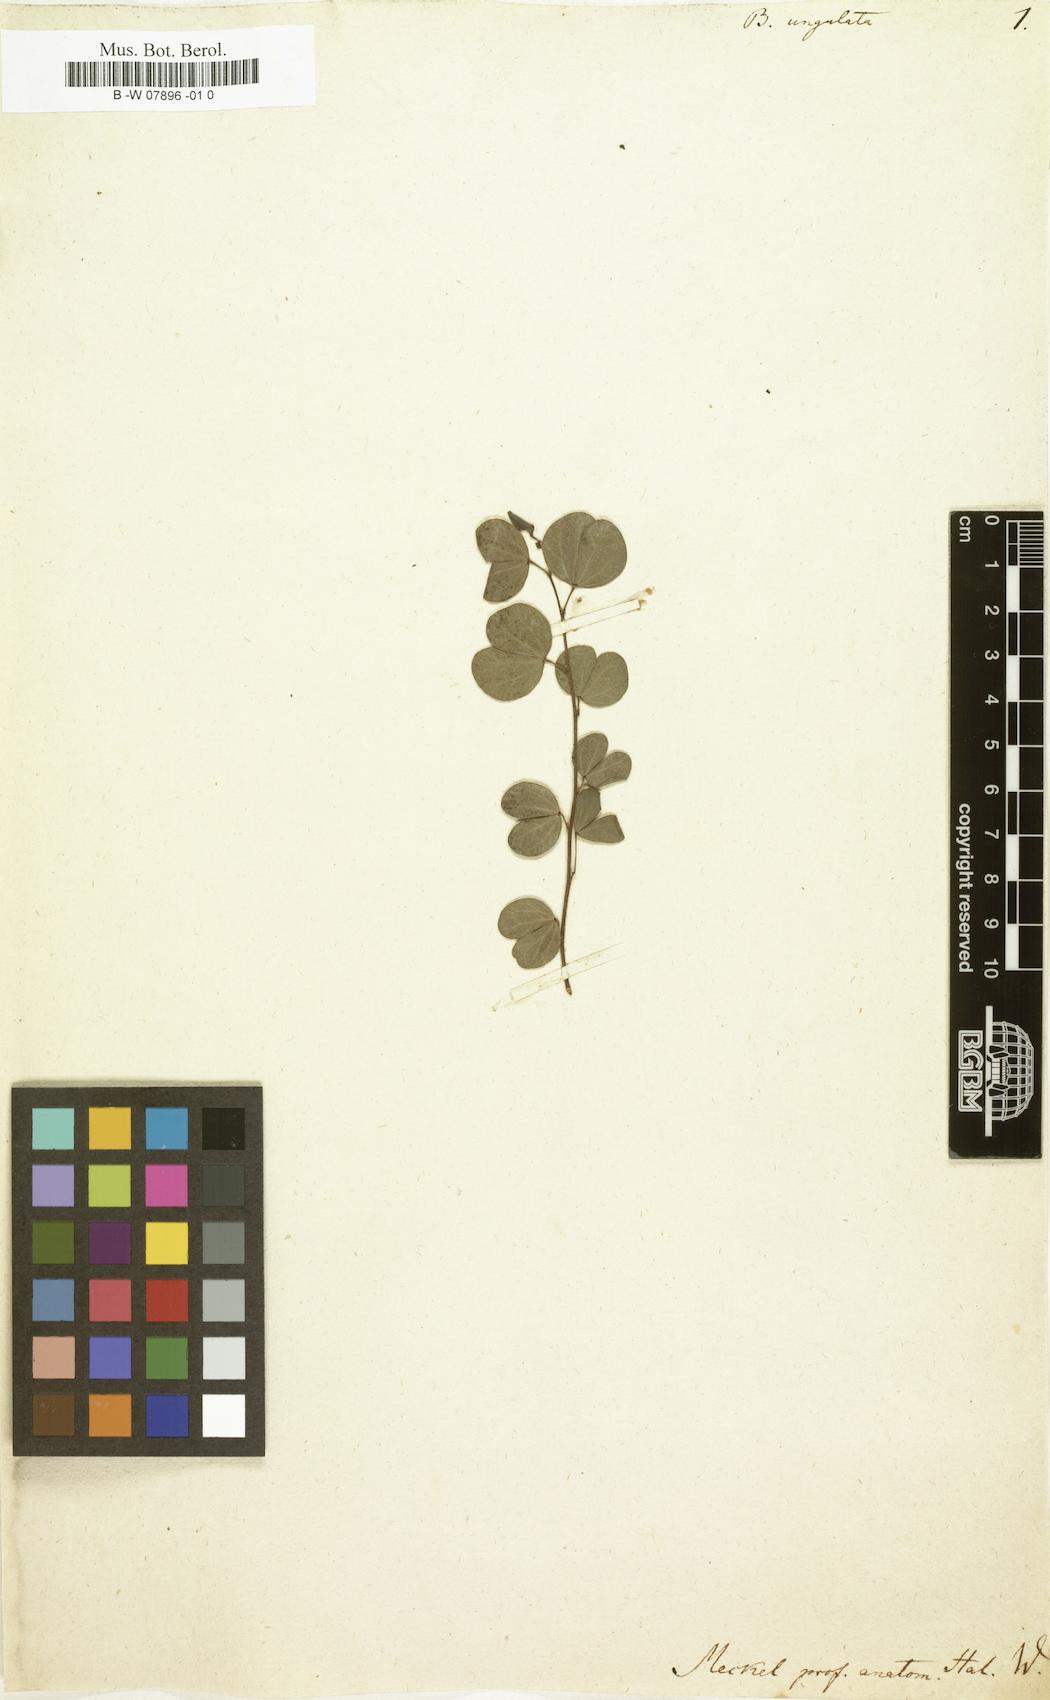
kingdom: Plantae
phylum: Tracheophyta
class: Magnoliopsida
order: Fabales
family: Fabaceae
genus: Bauhinia
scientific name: Bauhinia ungulata
